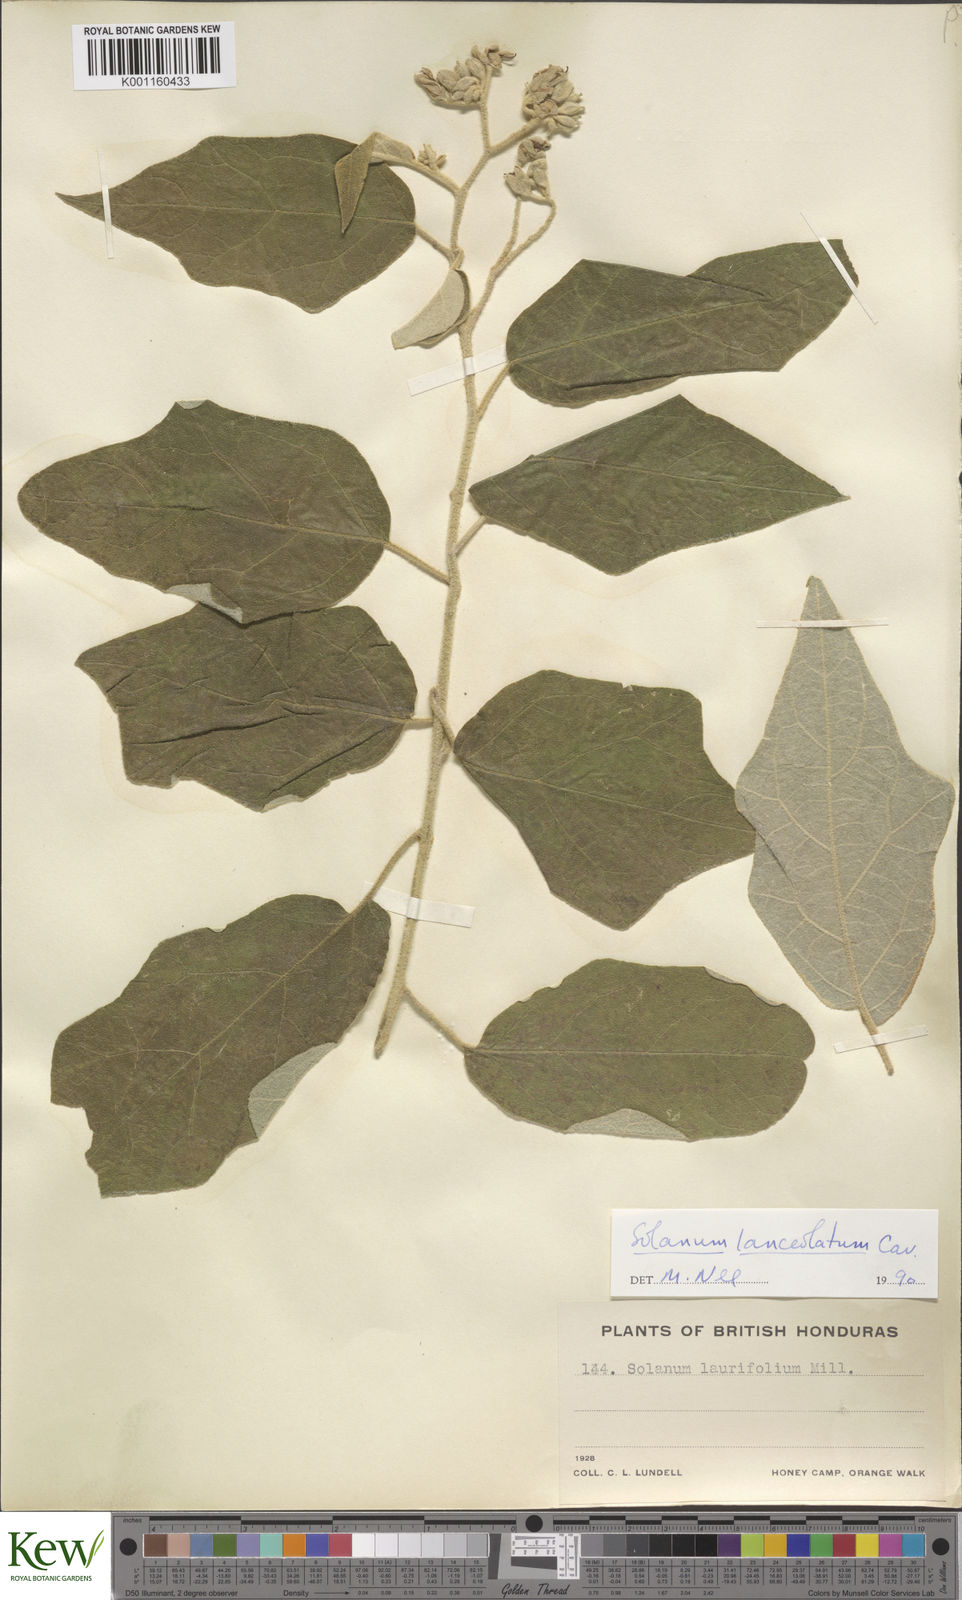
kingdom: Plantae
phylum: Tracheophyta
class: Magnoliopsida
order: Solanales
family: Solanaceae
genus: Solanum
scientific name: Solanum lanceolatum
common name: Orangeberry nightshade
